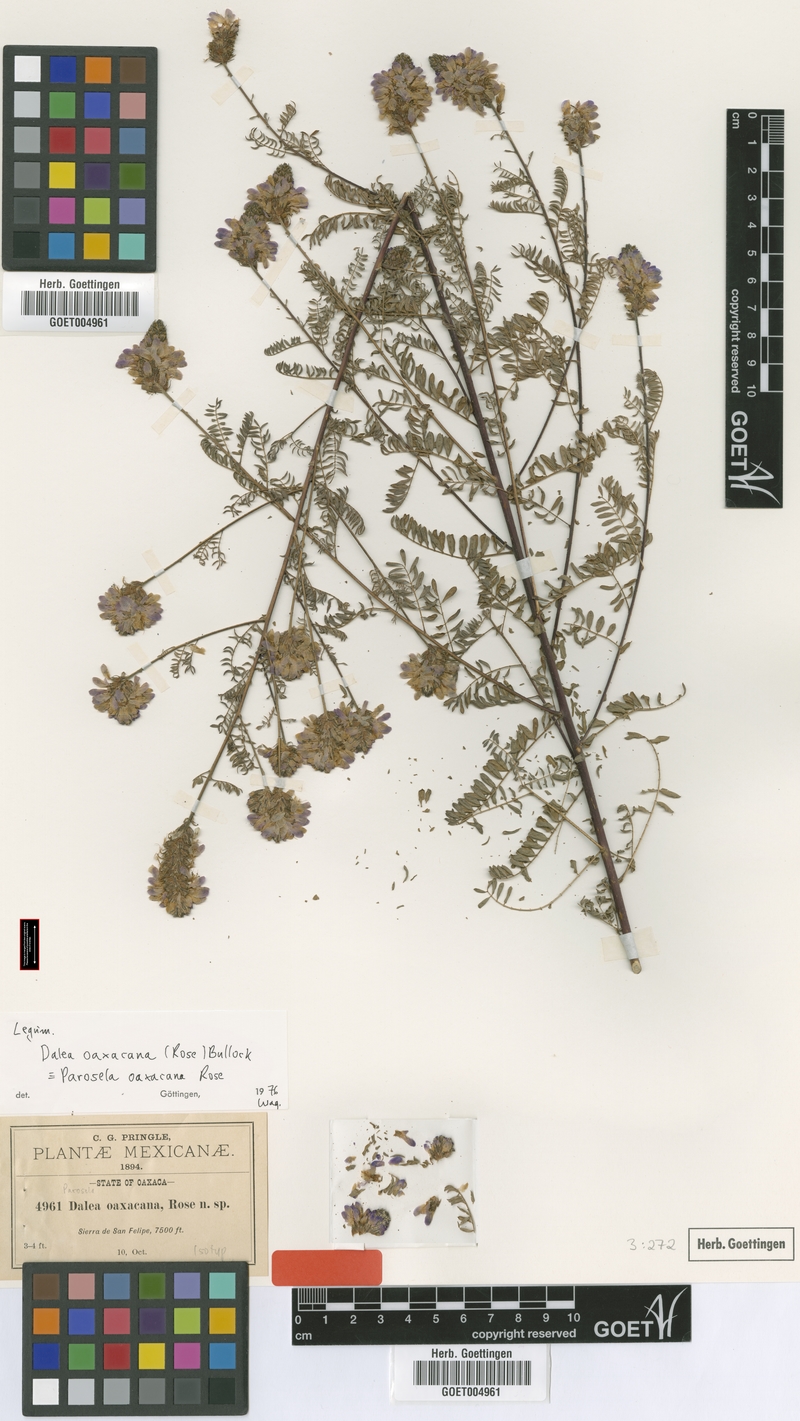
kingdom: Plantae
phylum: Tracheophyta
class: Magnoliopsida
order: Fabales
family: Fabaceae
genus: Dalea
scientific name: Dalea virgata
